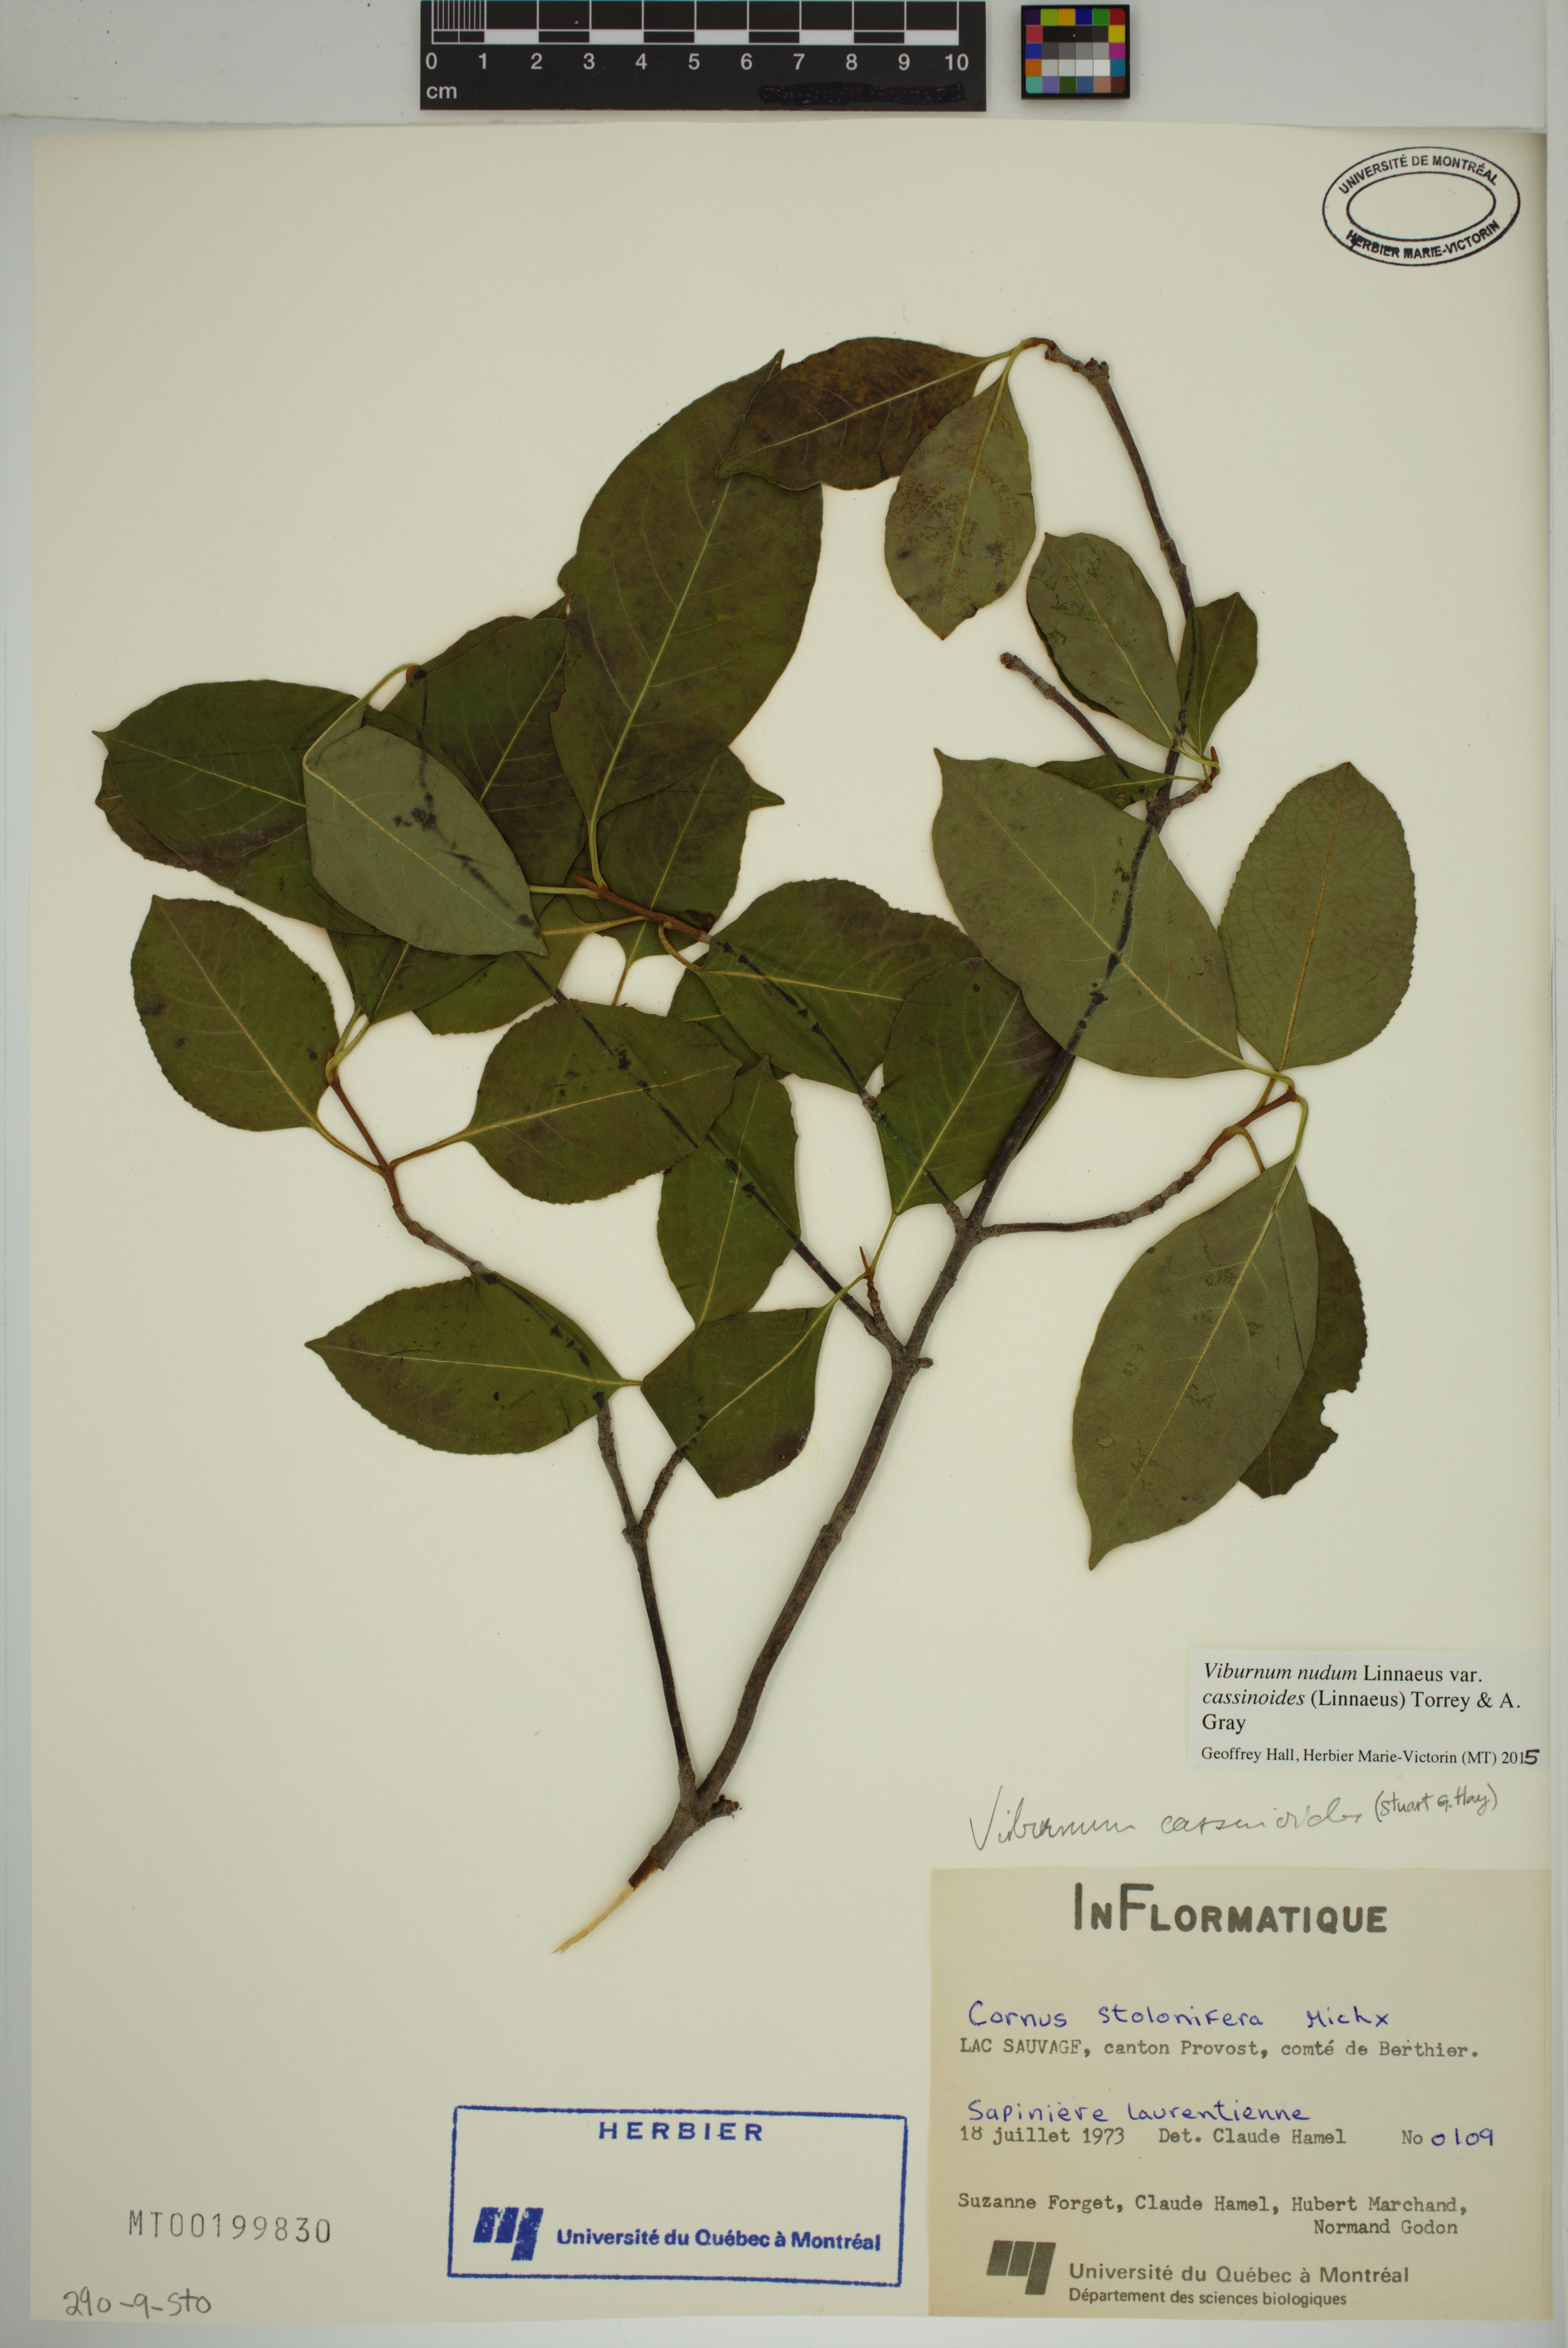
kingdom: Plantae
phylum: Tracheophyta
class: Magnoliopsida
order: Dipsacales
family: Viburnaceae
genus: Viburnum
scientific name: Viburnum cassinoides
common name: Swamp haw
